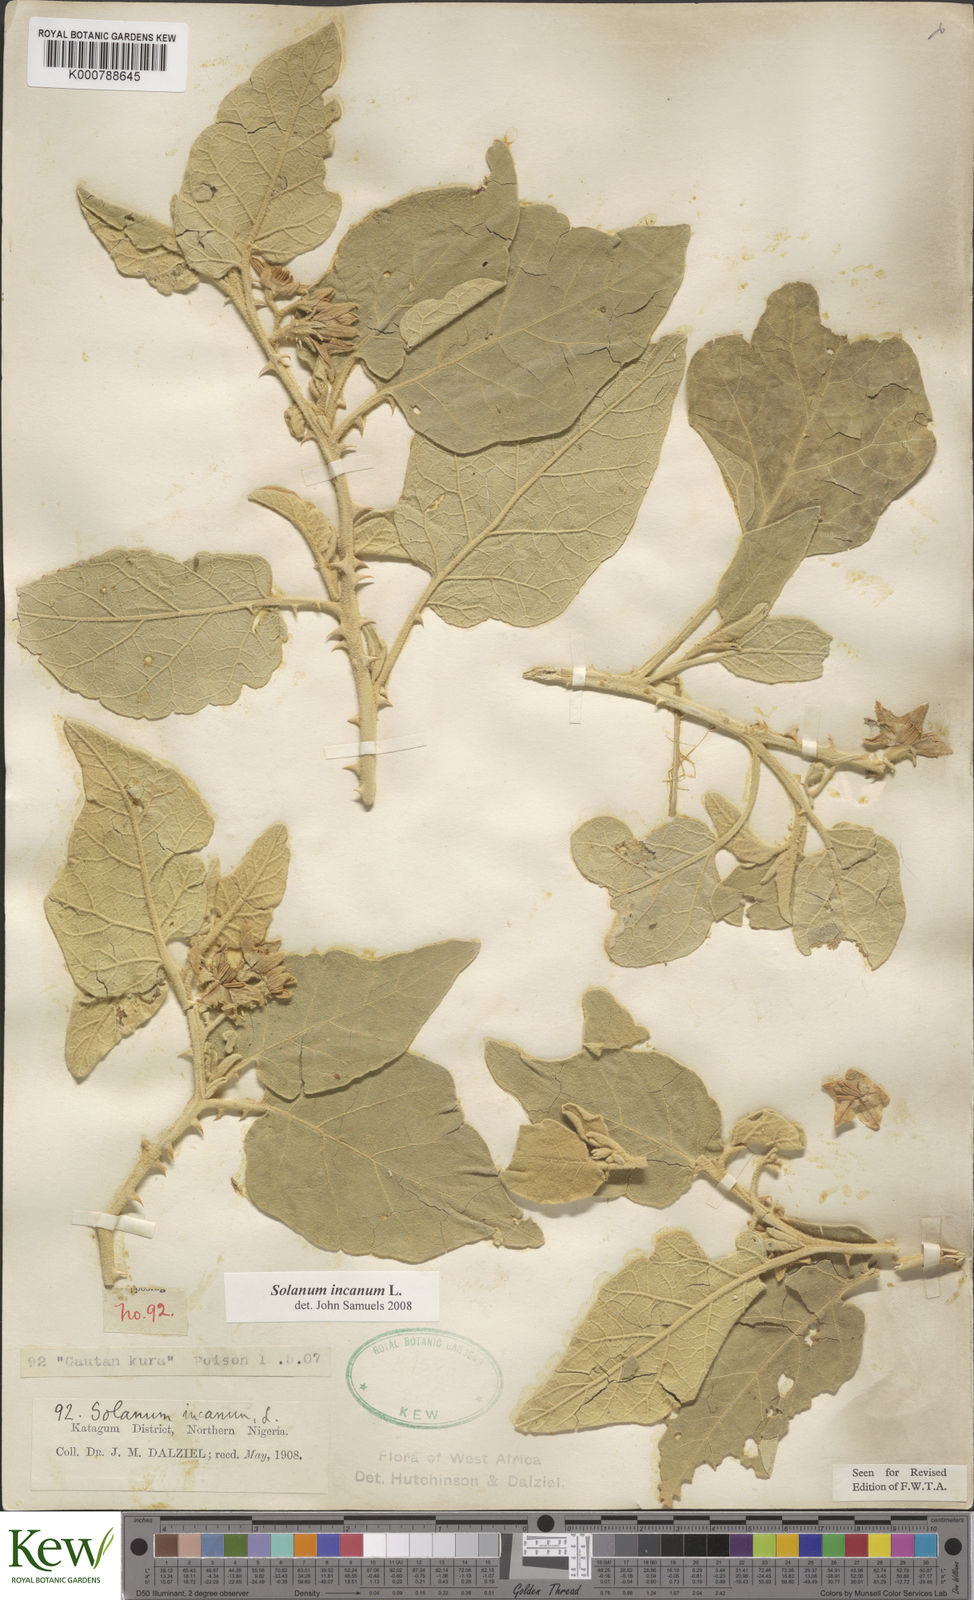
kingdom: Plantae
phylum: Tracheophyta
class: Magnoliopsida
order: Solanales
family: Solanaceae
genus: Solanum
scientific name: Solanum incanum
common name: Bitter apple
